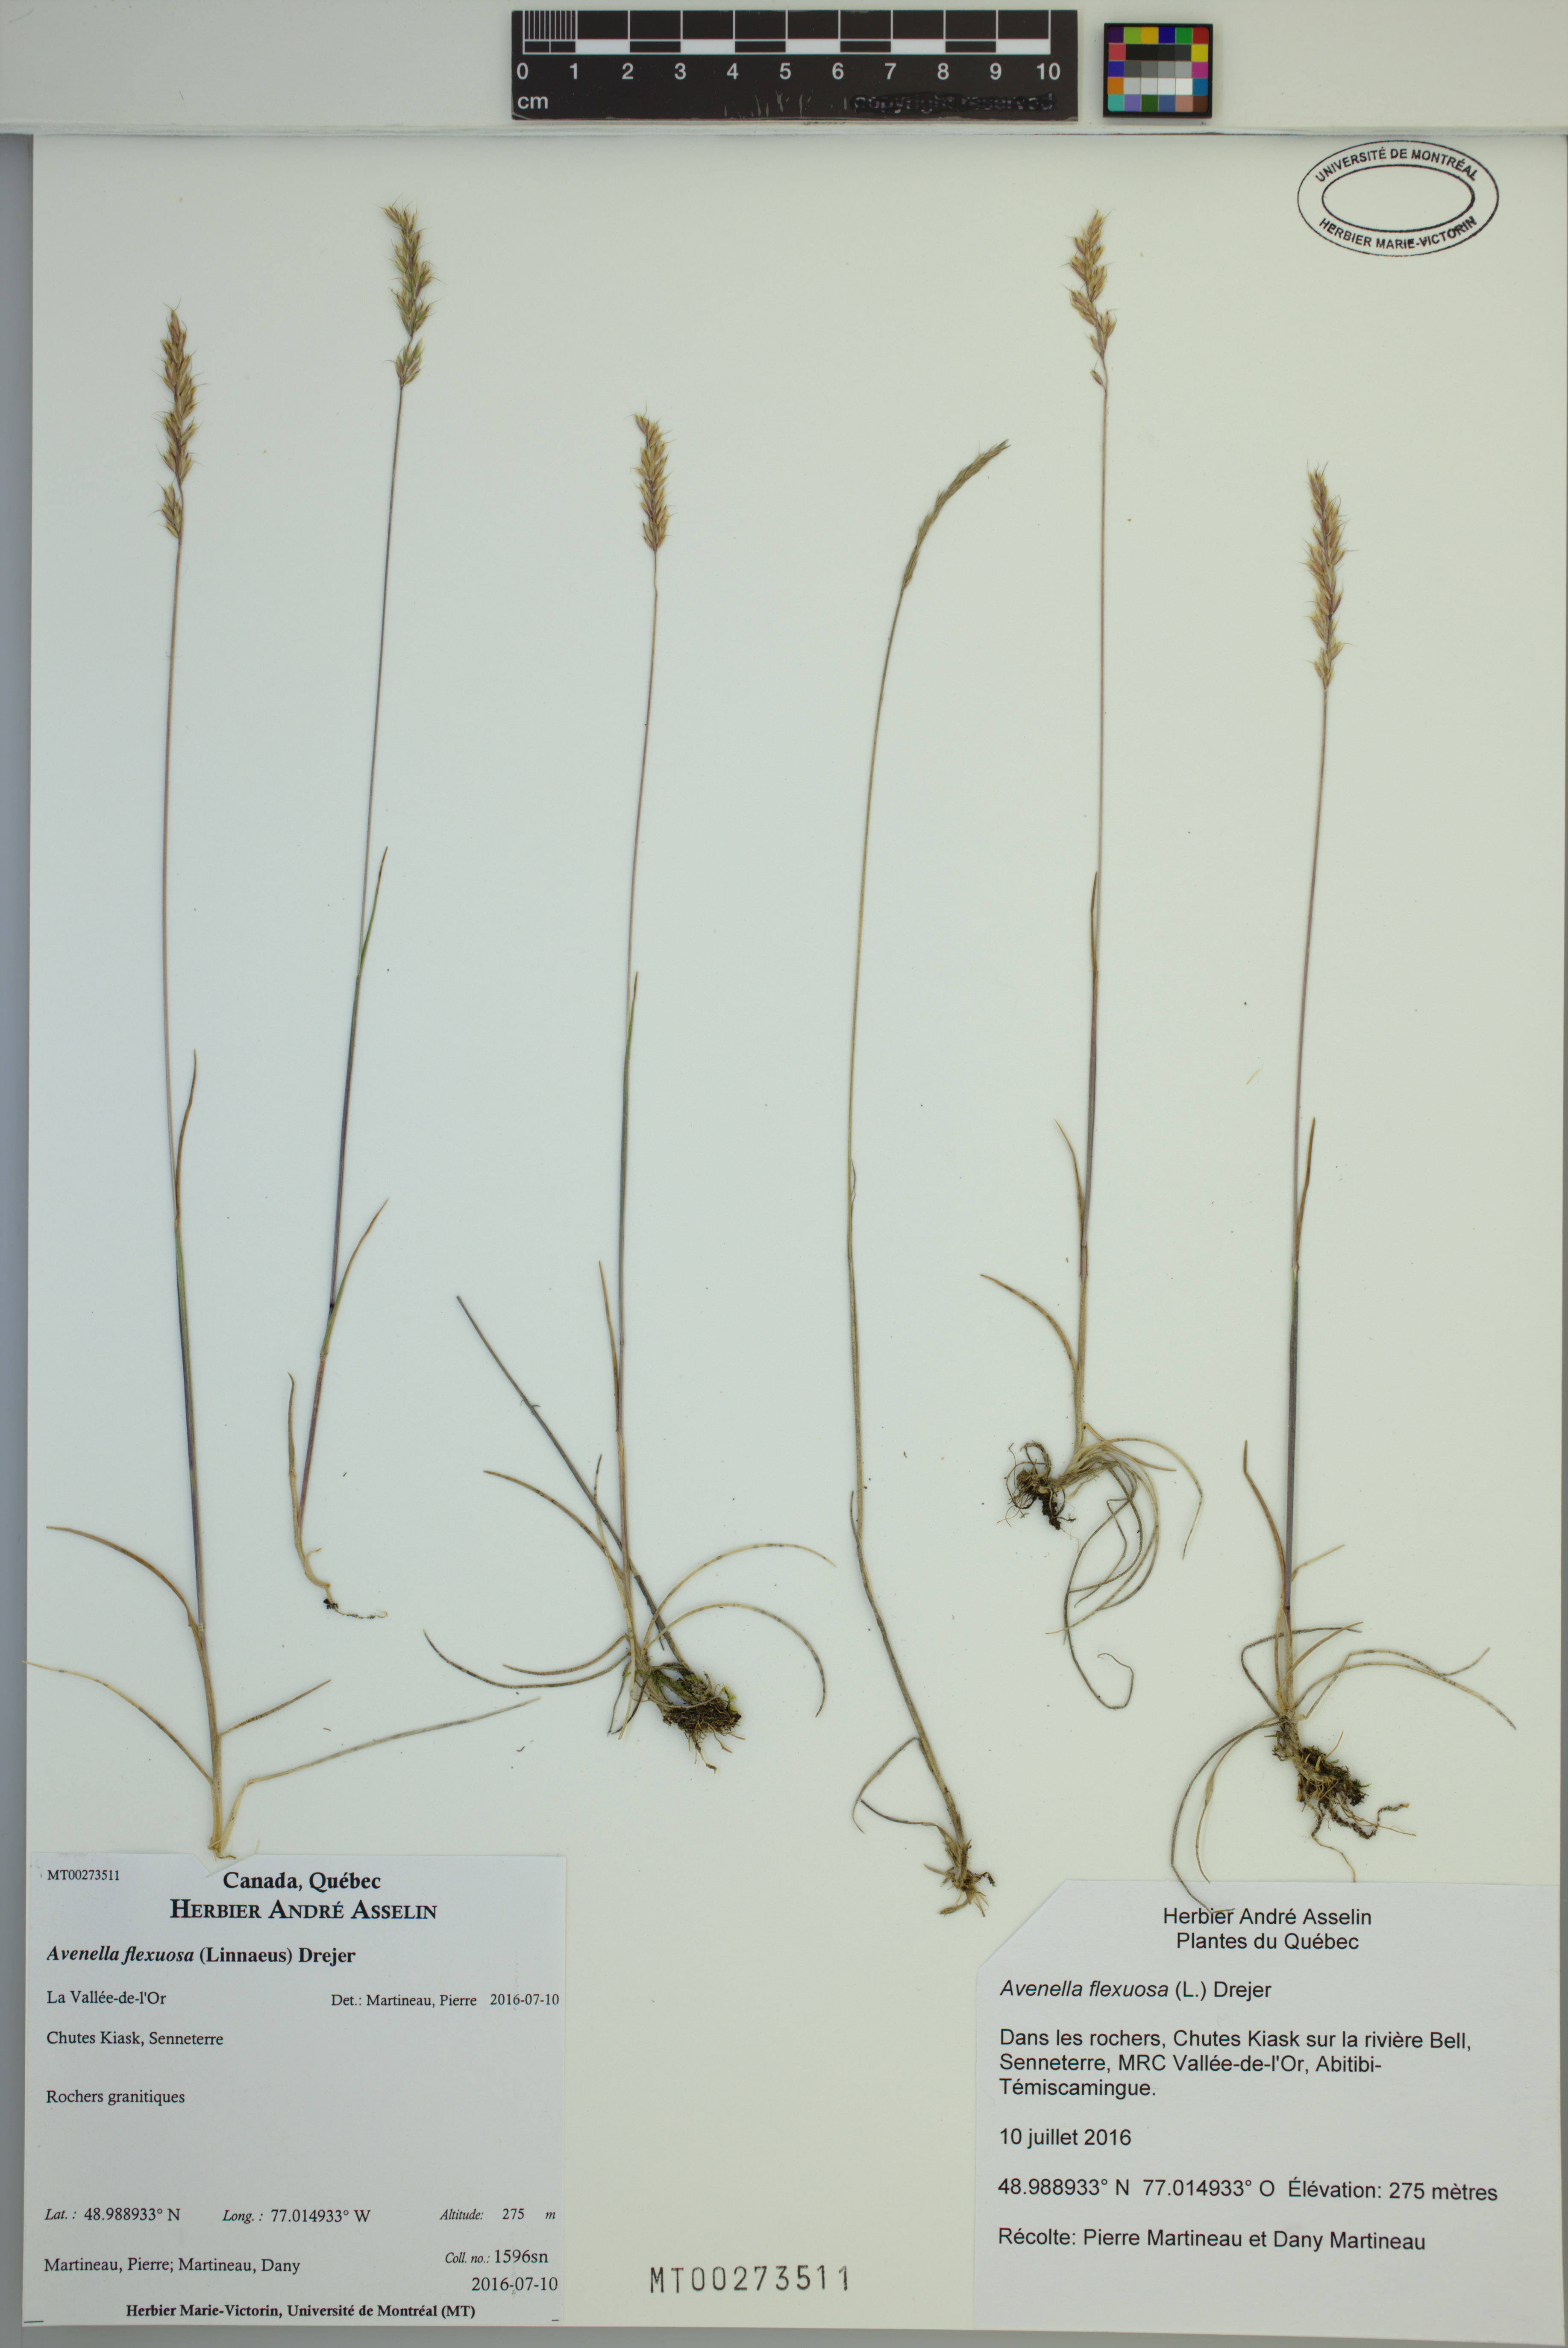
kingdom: Plantae
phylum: Tracheophyta
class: Liliopsida
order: Poales
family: Poaceae
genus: Avenella
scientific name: Avenella flexuosa
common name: Wavy hairgrass
